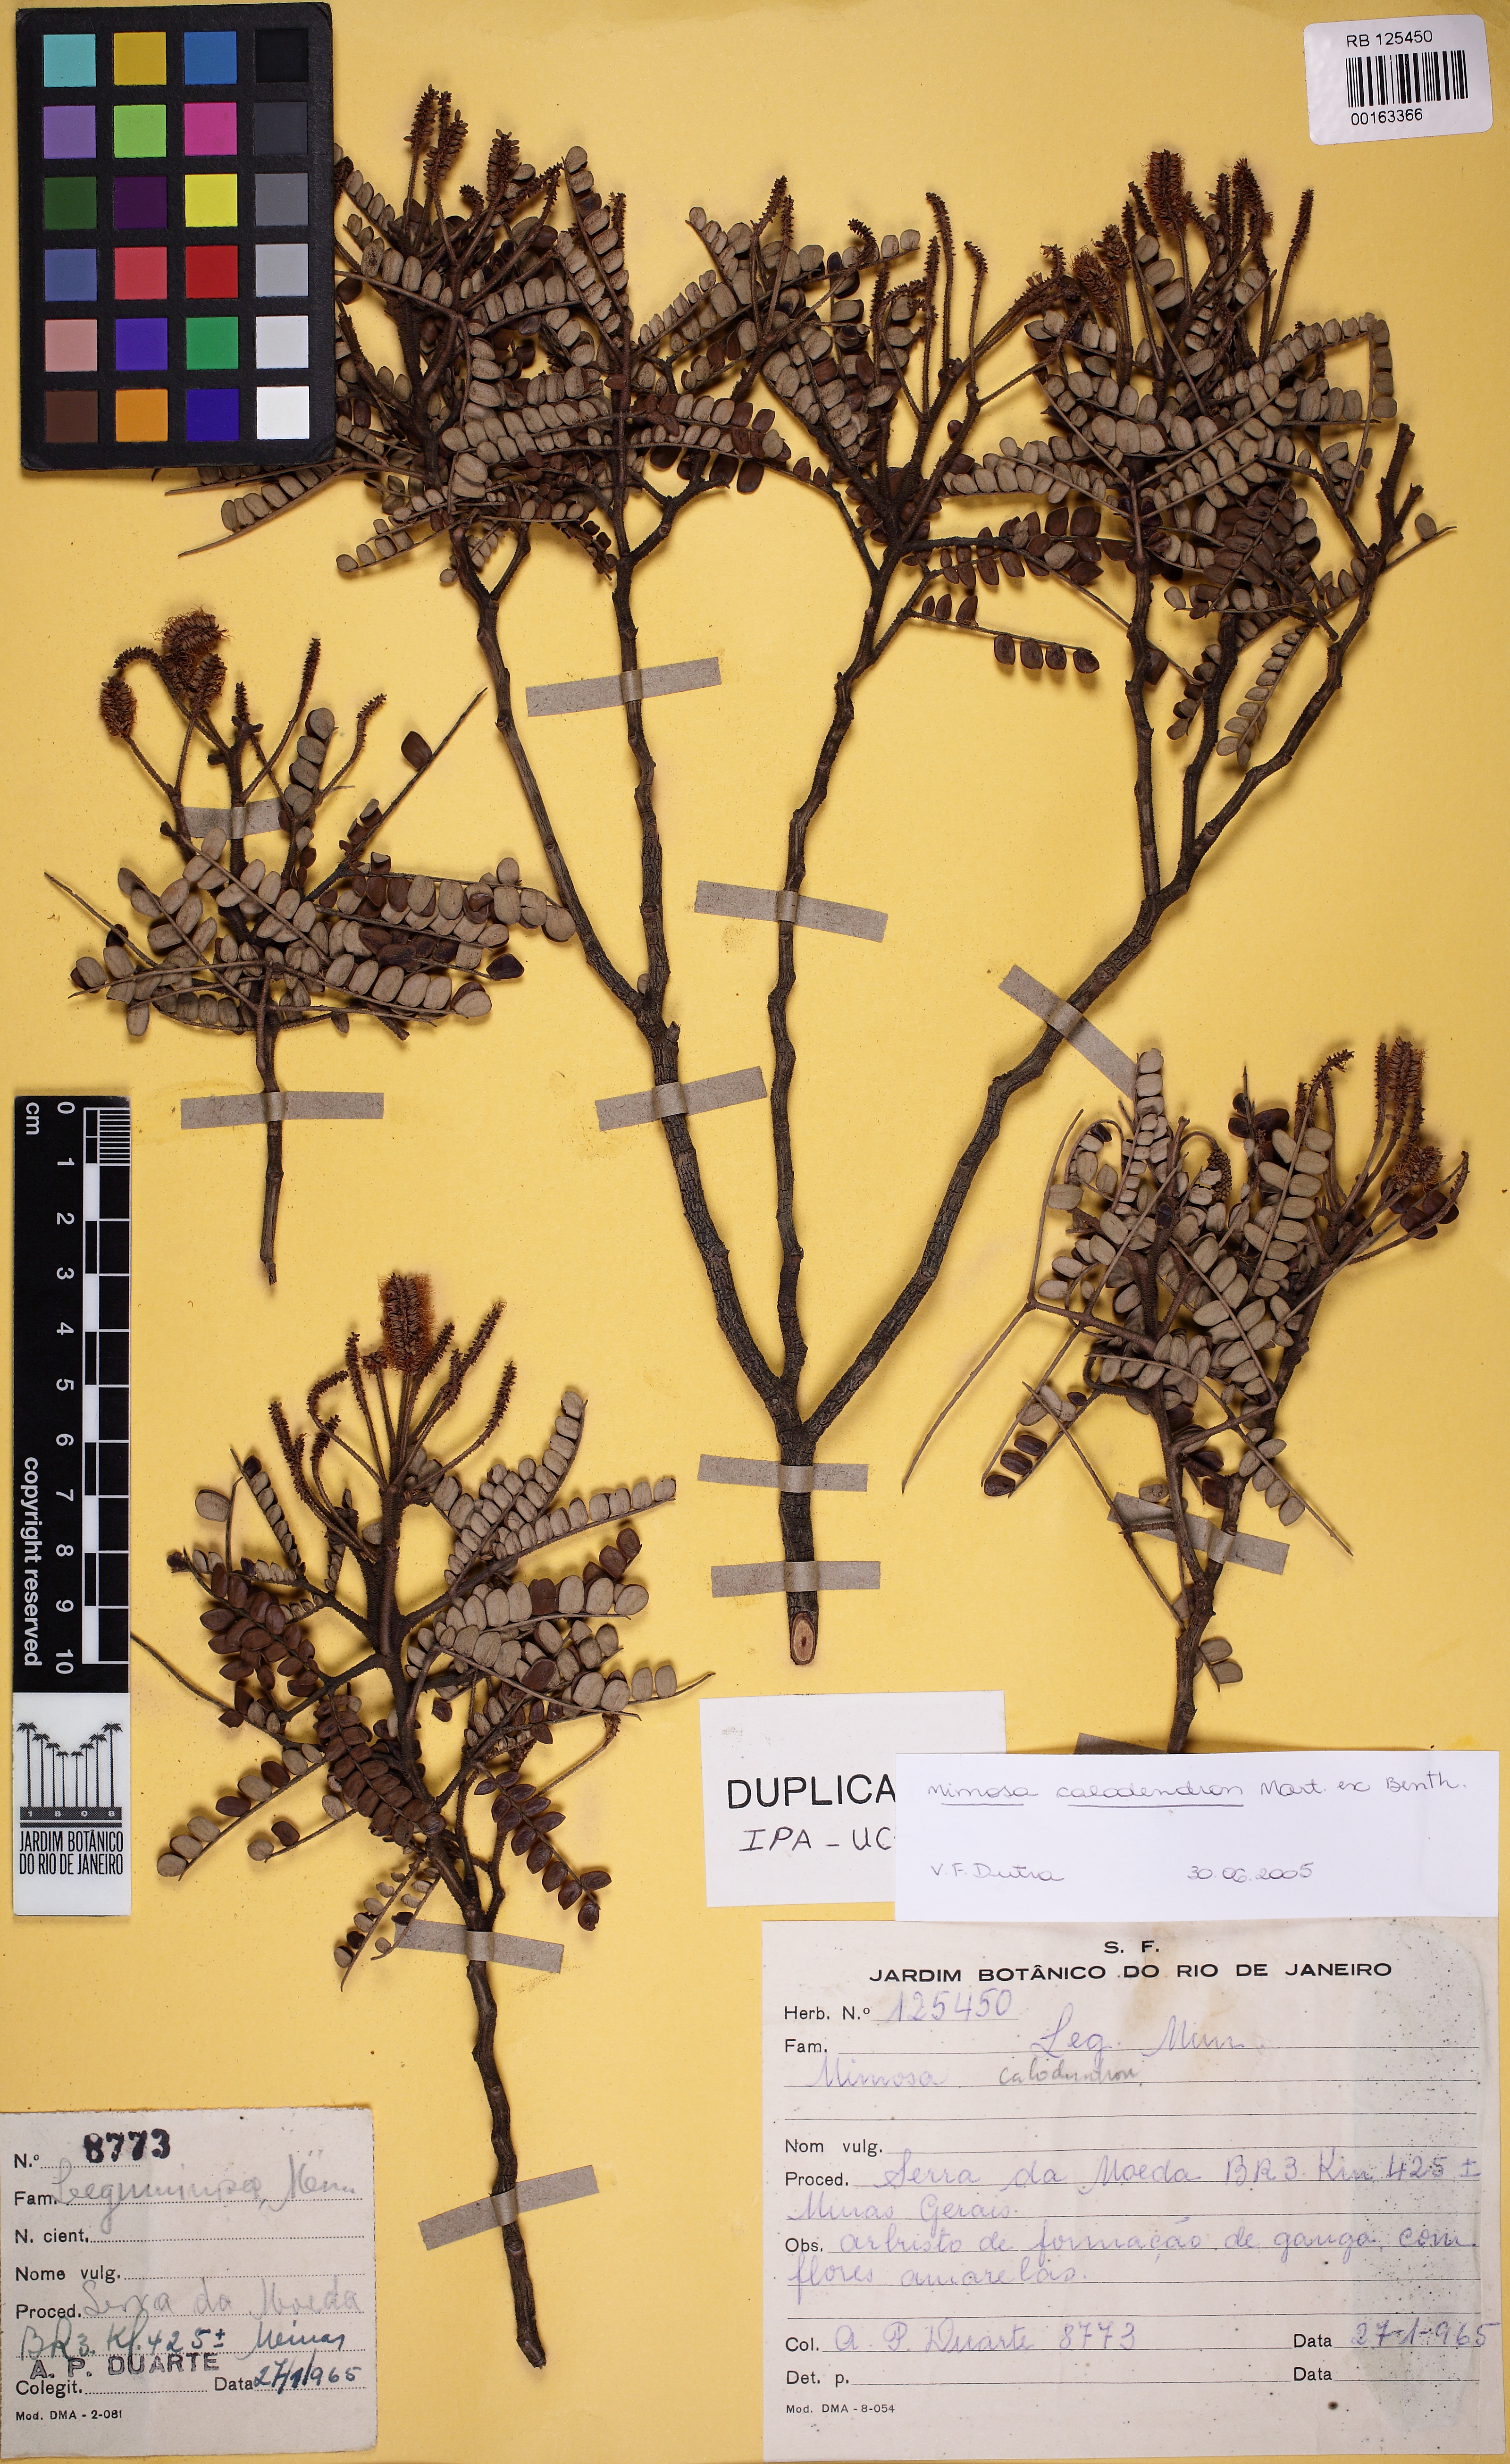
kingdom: Plantae
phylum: Tracheophyta
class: Magnoliopsida
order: Fabales
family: Fabaceae
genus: Mimosa
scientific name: Mimosa calodendron
